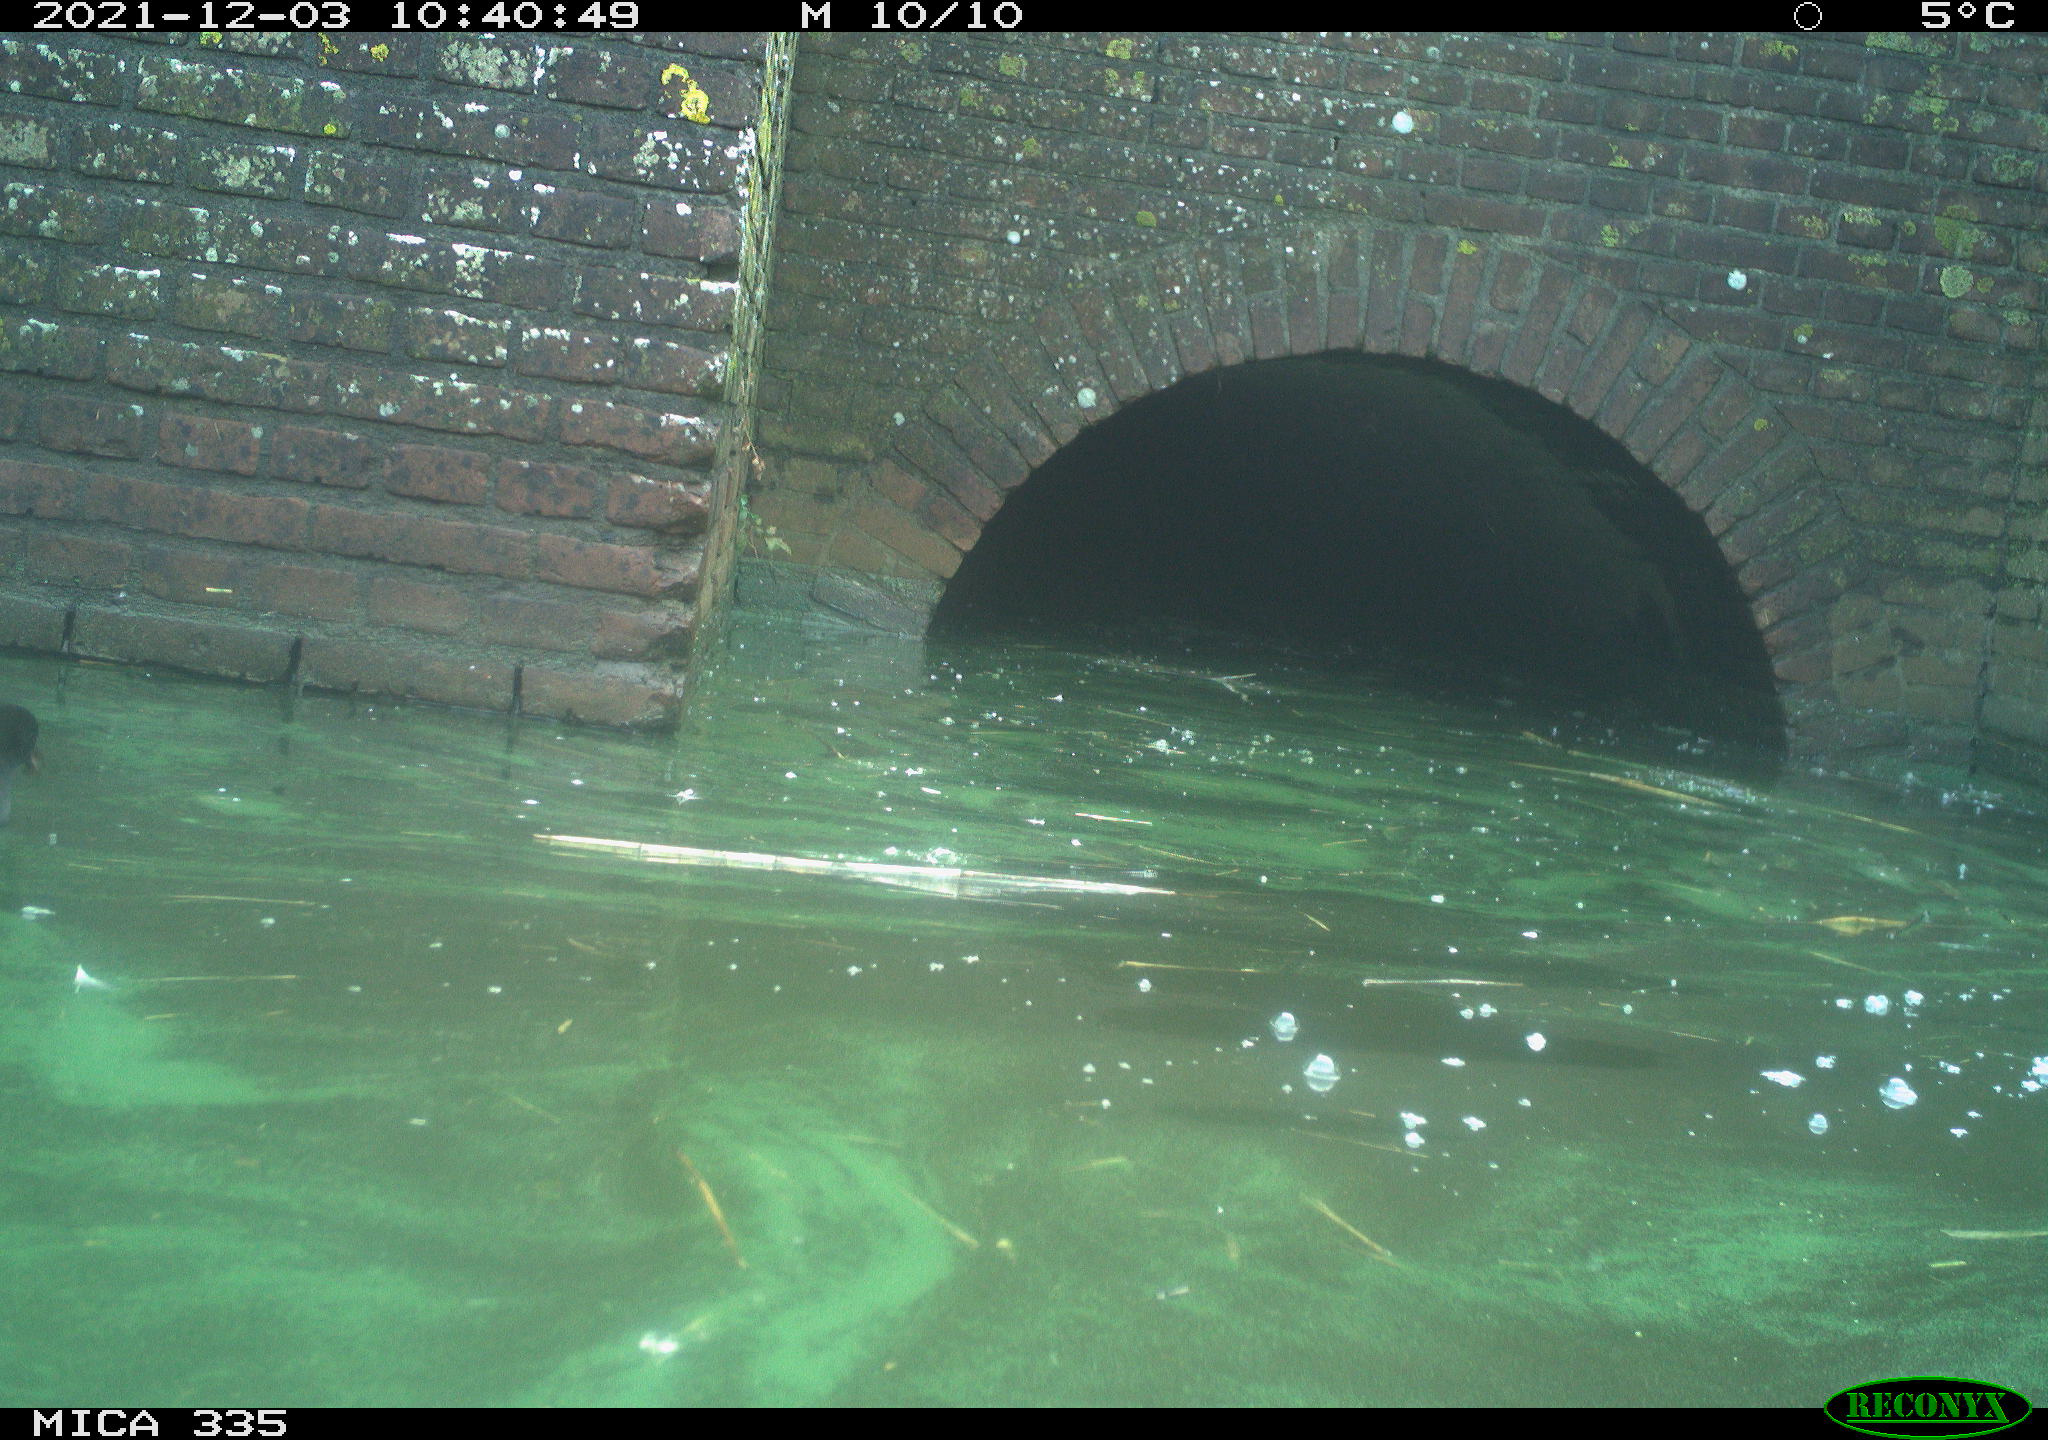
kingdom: Animalia
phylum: Chordata
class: Aves
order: Gruiformes
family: Rallidae
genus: Gallinula
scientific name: Gallinula chloropus
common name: Common moorhen
